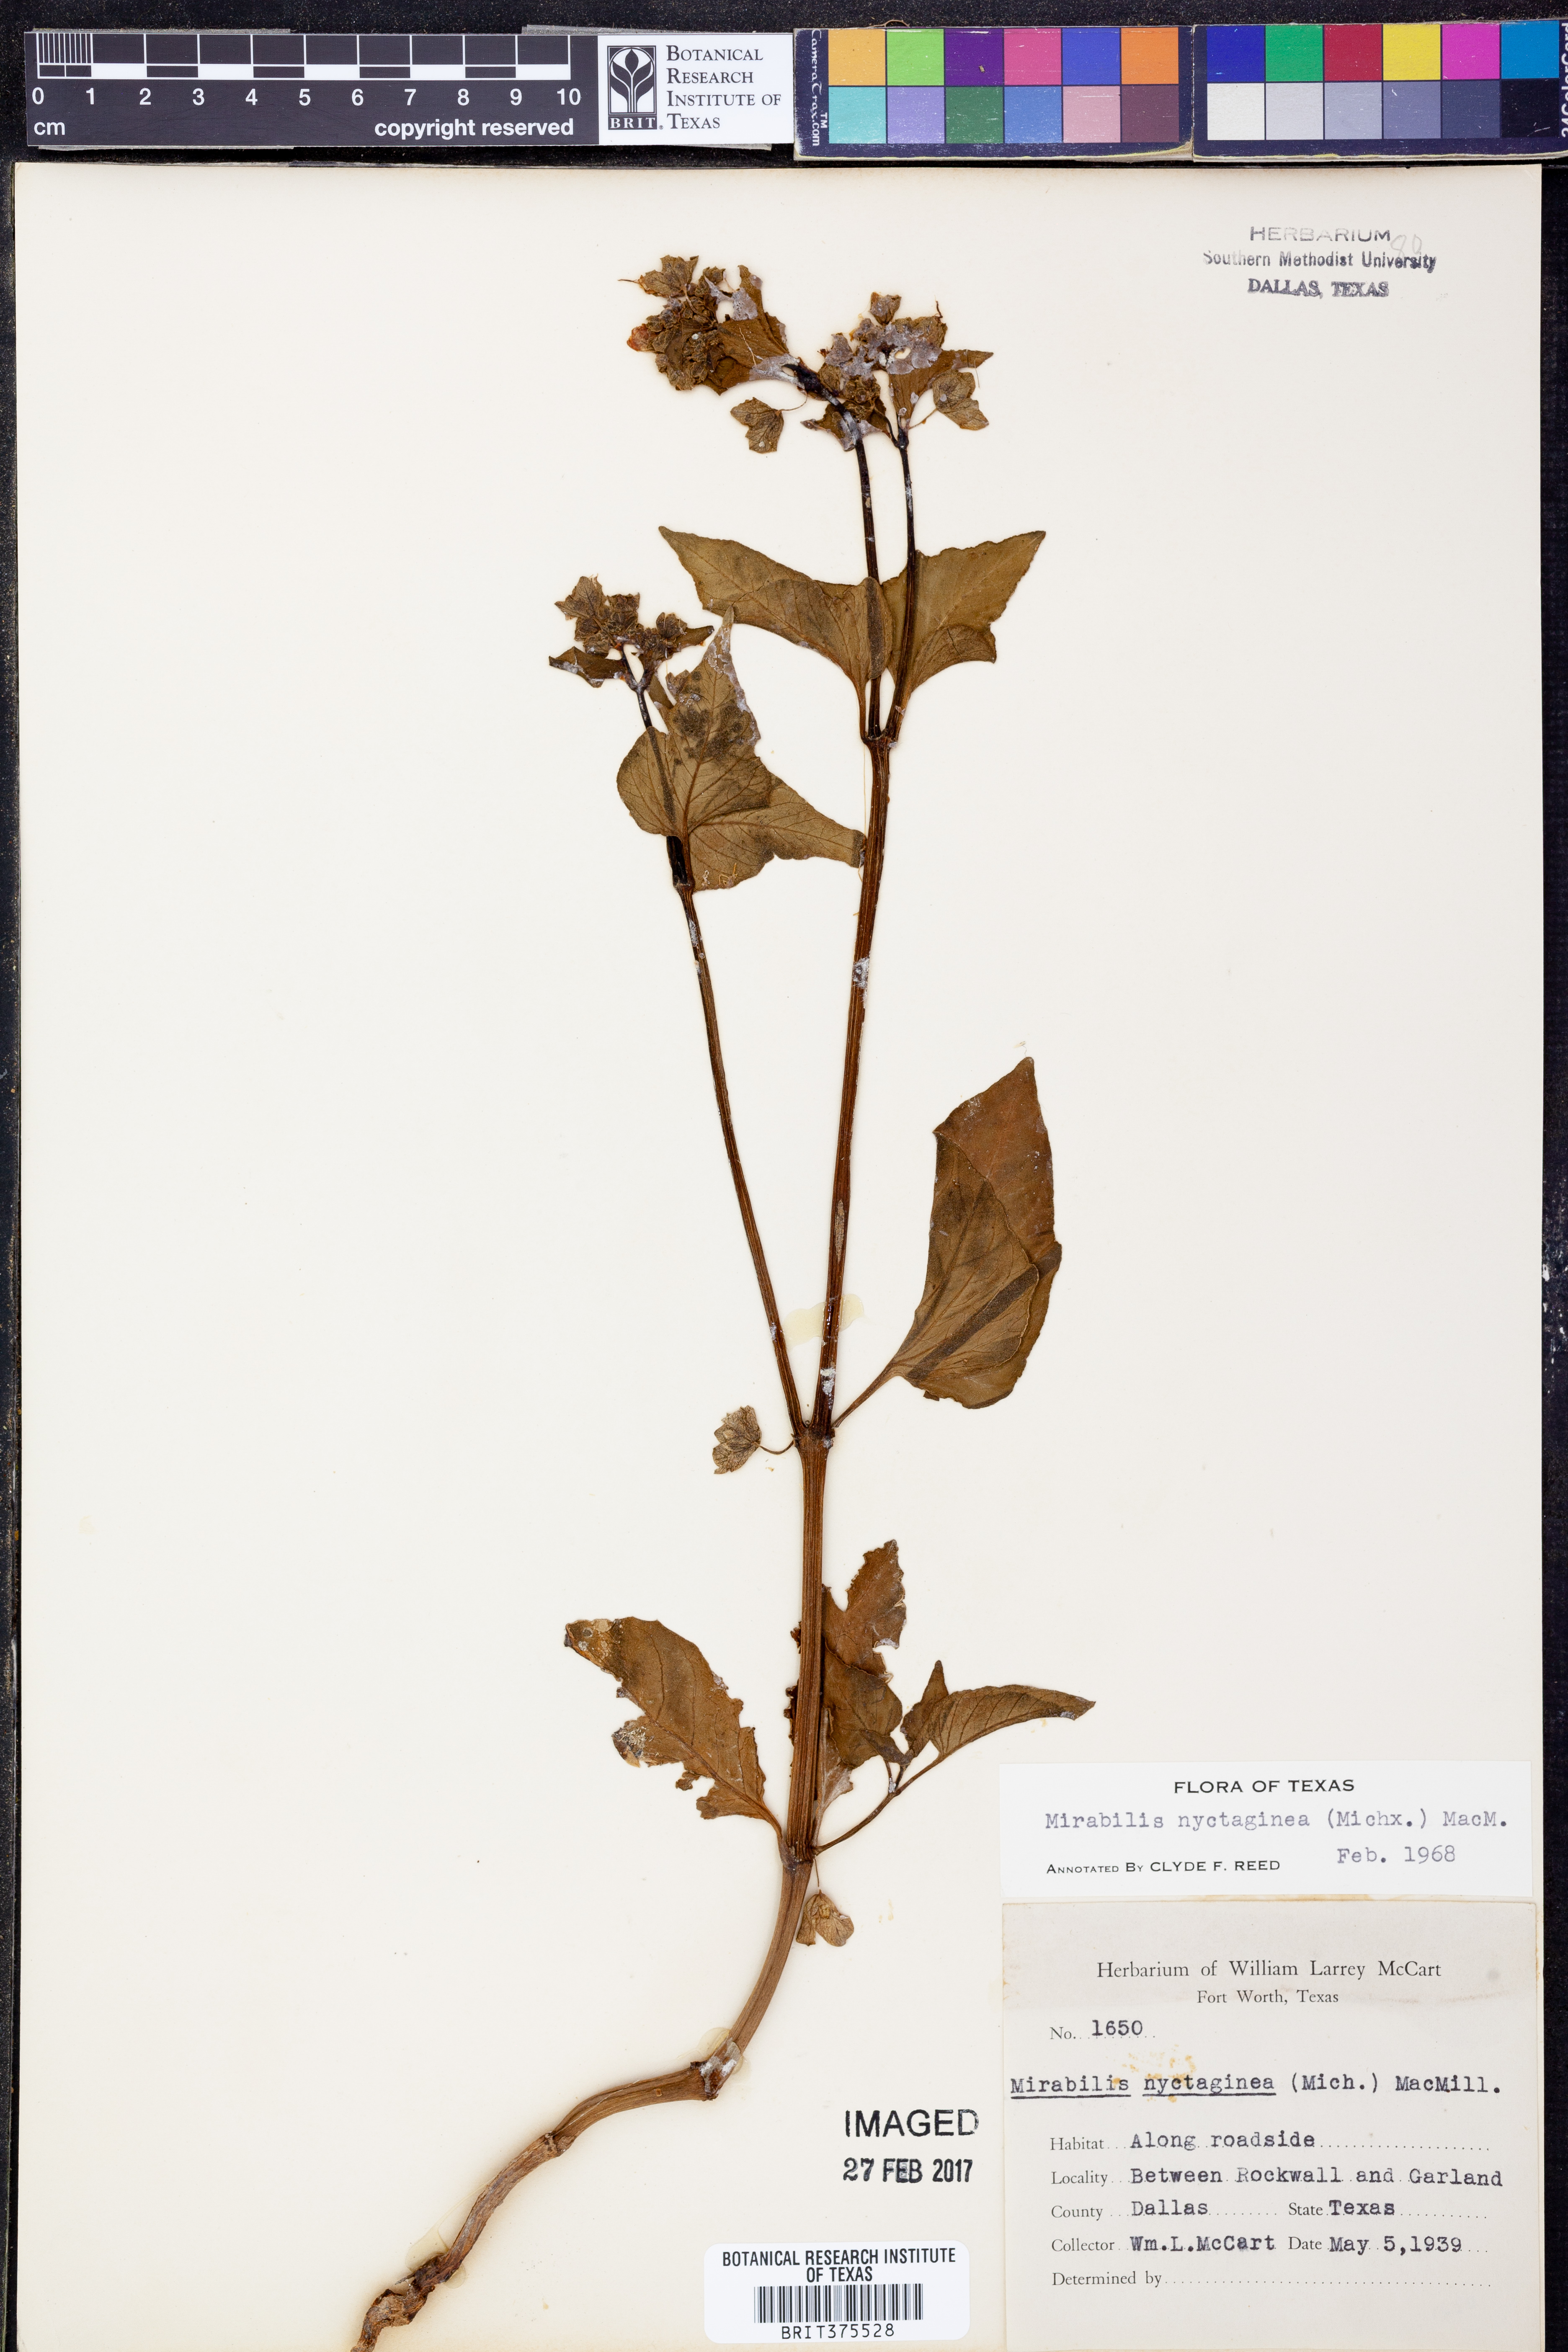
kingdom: Plantae
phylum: Tracheophyta
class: Magnoliopsida
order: Caryophyllales
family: Nyctaginaceae
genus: Mirabilis
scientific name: Mirabilis nyctaginea
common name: Umbrella wort
